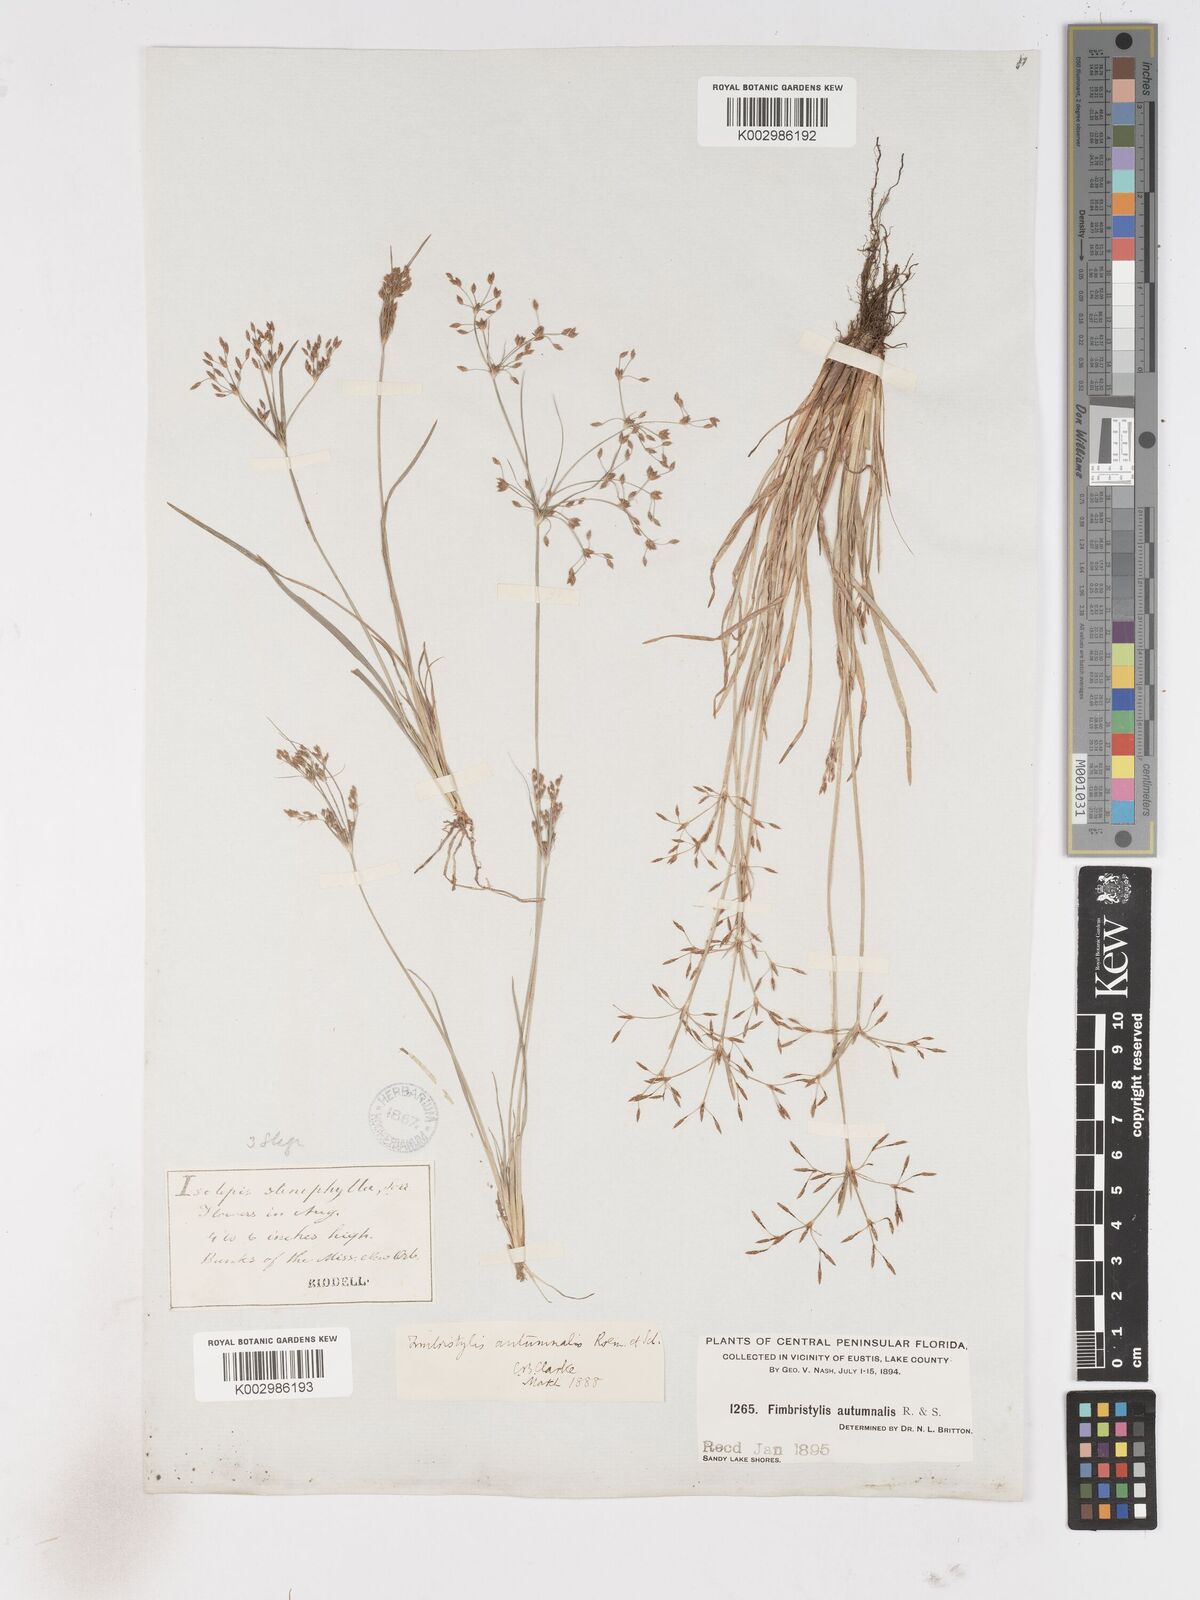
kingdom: Plantae
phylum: Tracheophyta
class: Liliopsida
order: Poales
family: Cyperaceae
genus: Fimbristylis
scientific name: Fimbristylis autumnalis
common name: Slender fimbristylis
